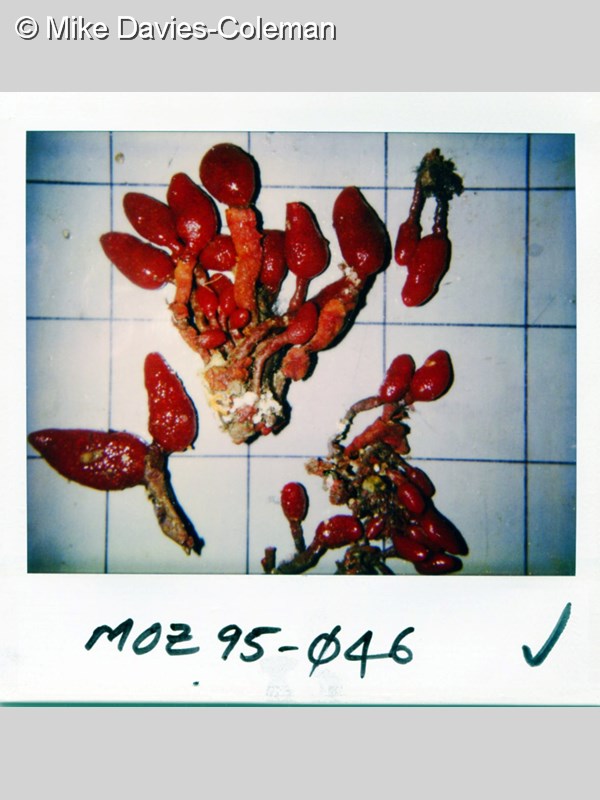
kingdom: Animalia
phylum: Chordata
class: Ascidiacea
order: Aplousobranchia
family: Pseudodistomidae
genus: Pseudodistoma
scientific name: Pseudodistoma africanum
